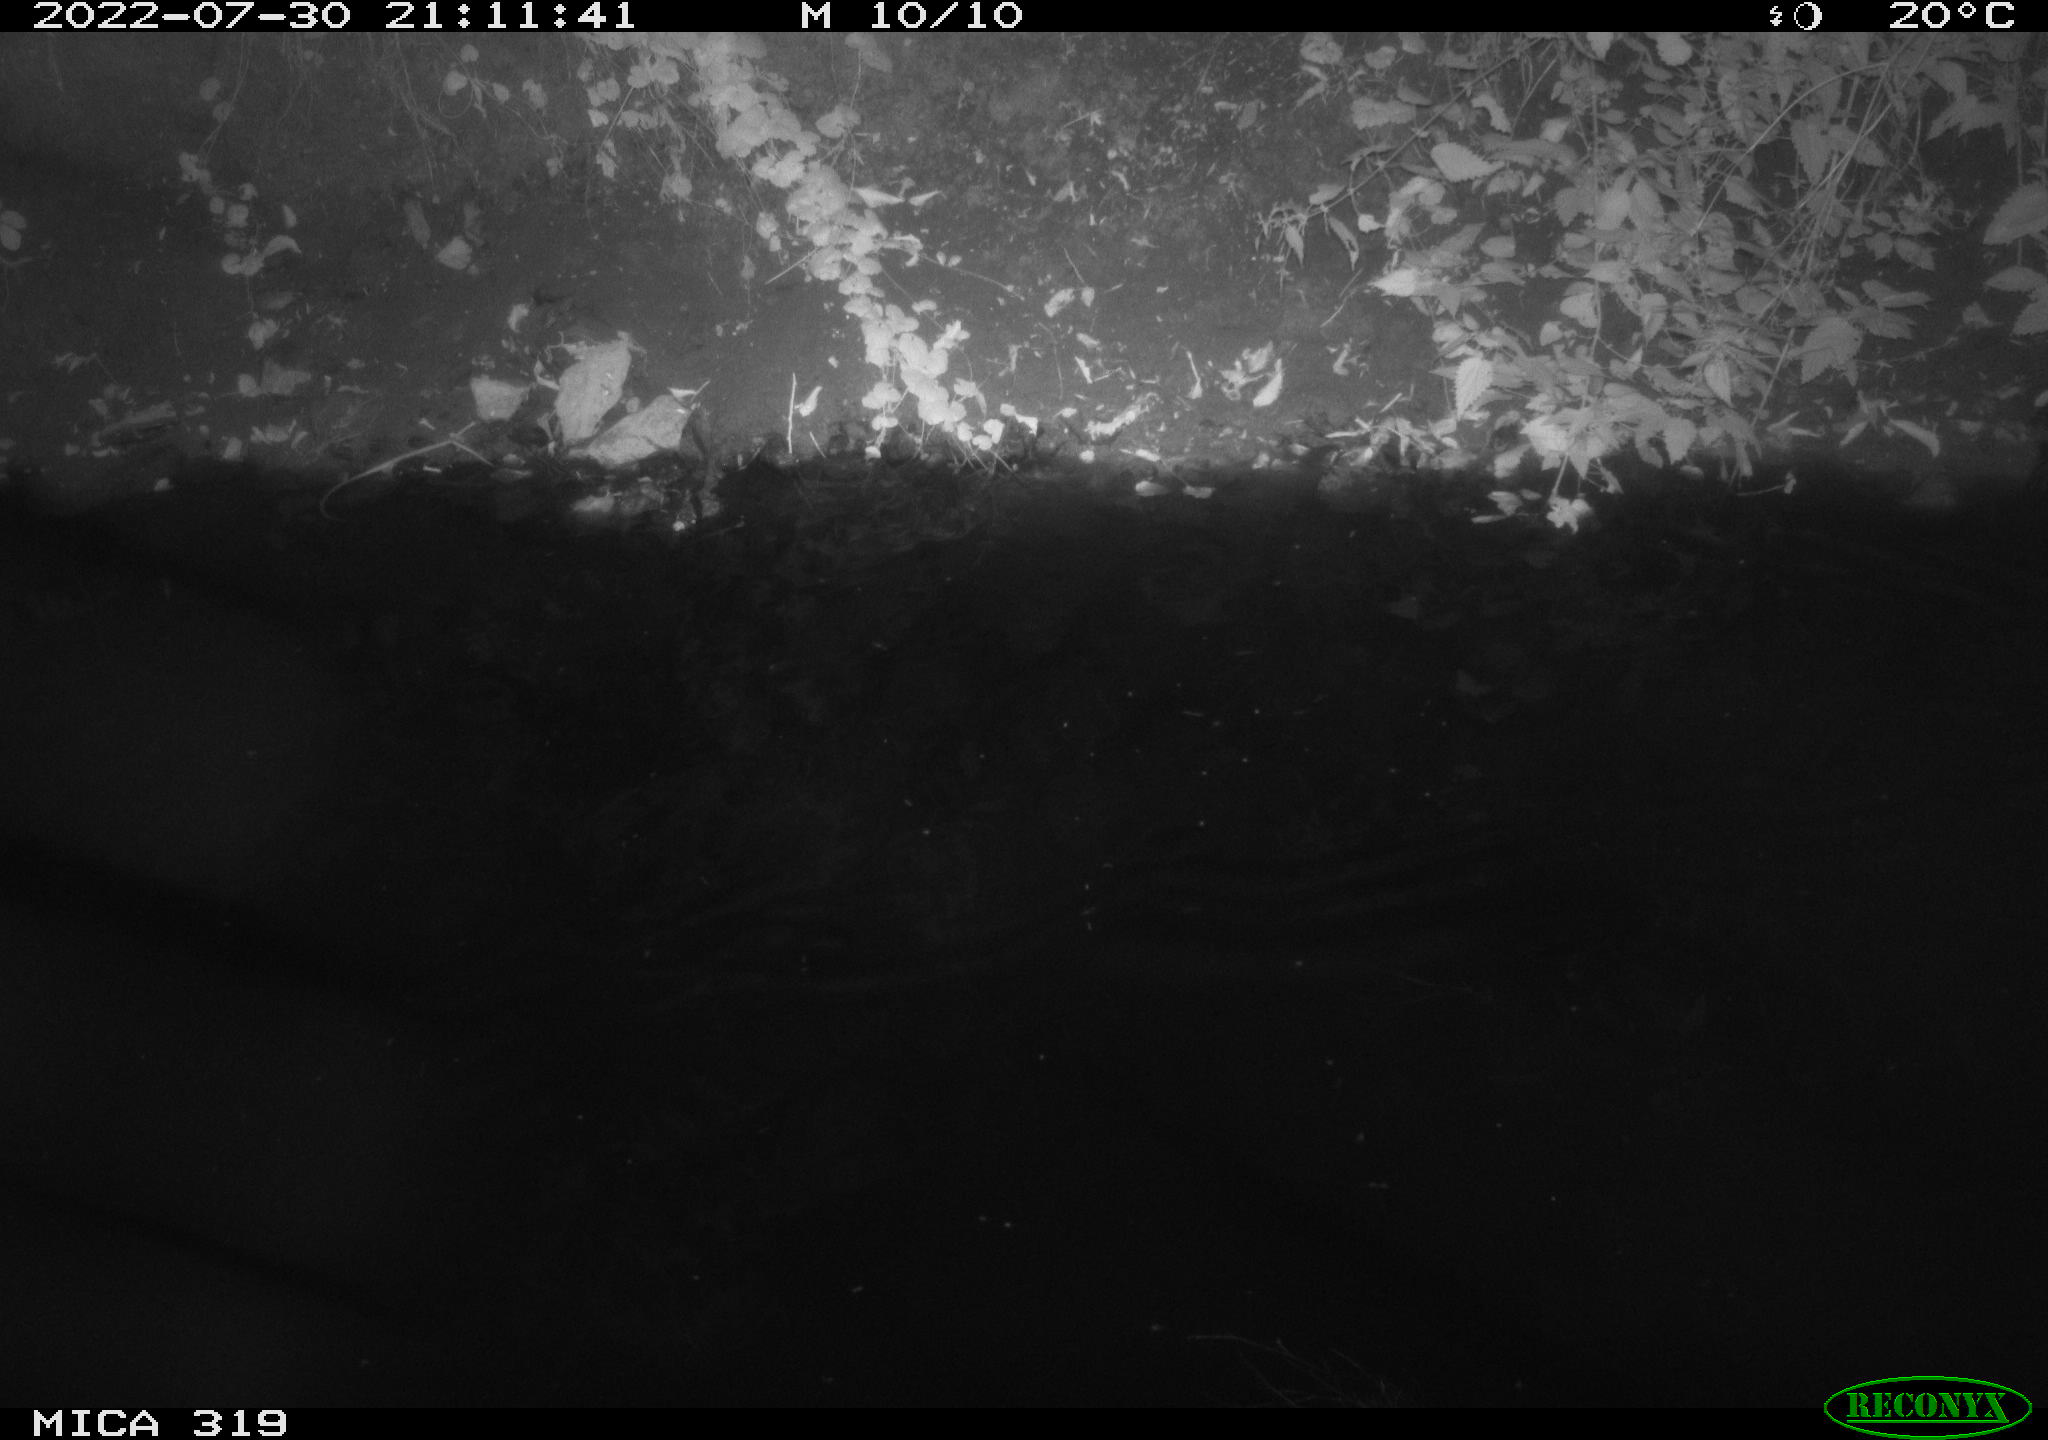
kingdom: Animalia
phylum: Chordata
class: Aves
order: Anseriformes
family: Anatidae
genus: Anas
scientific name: Anas
